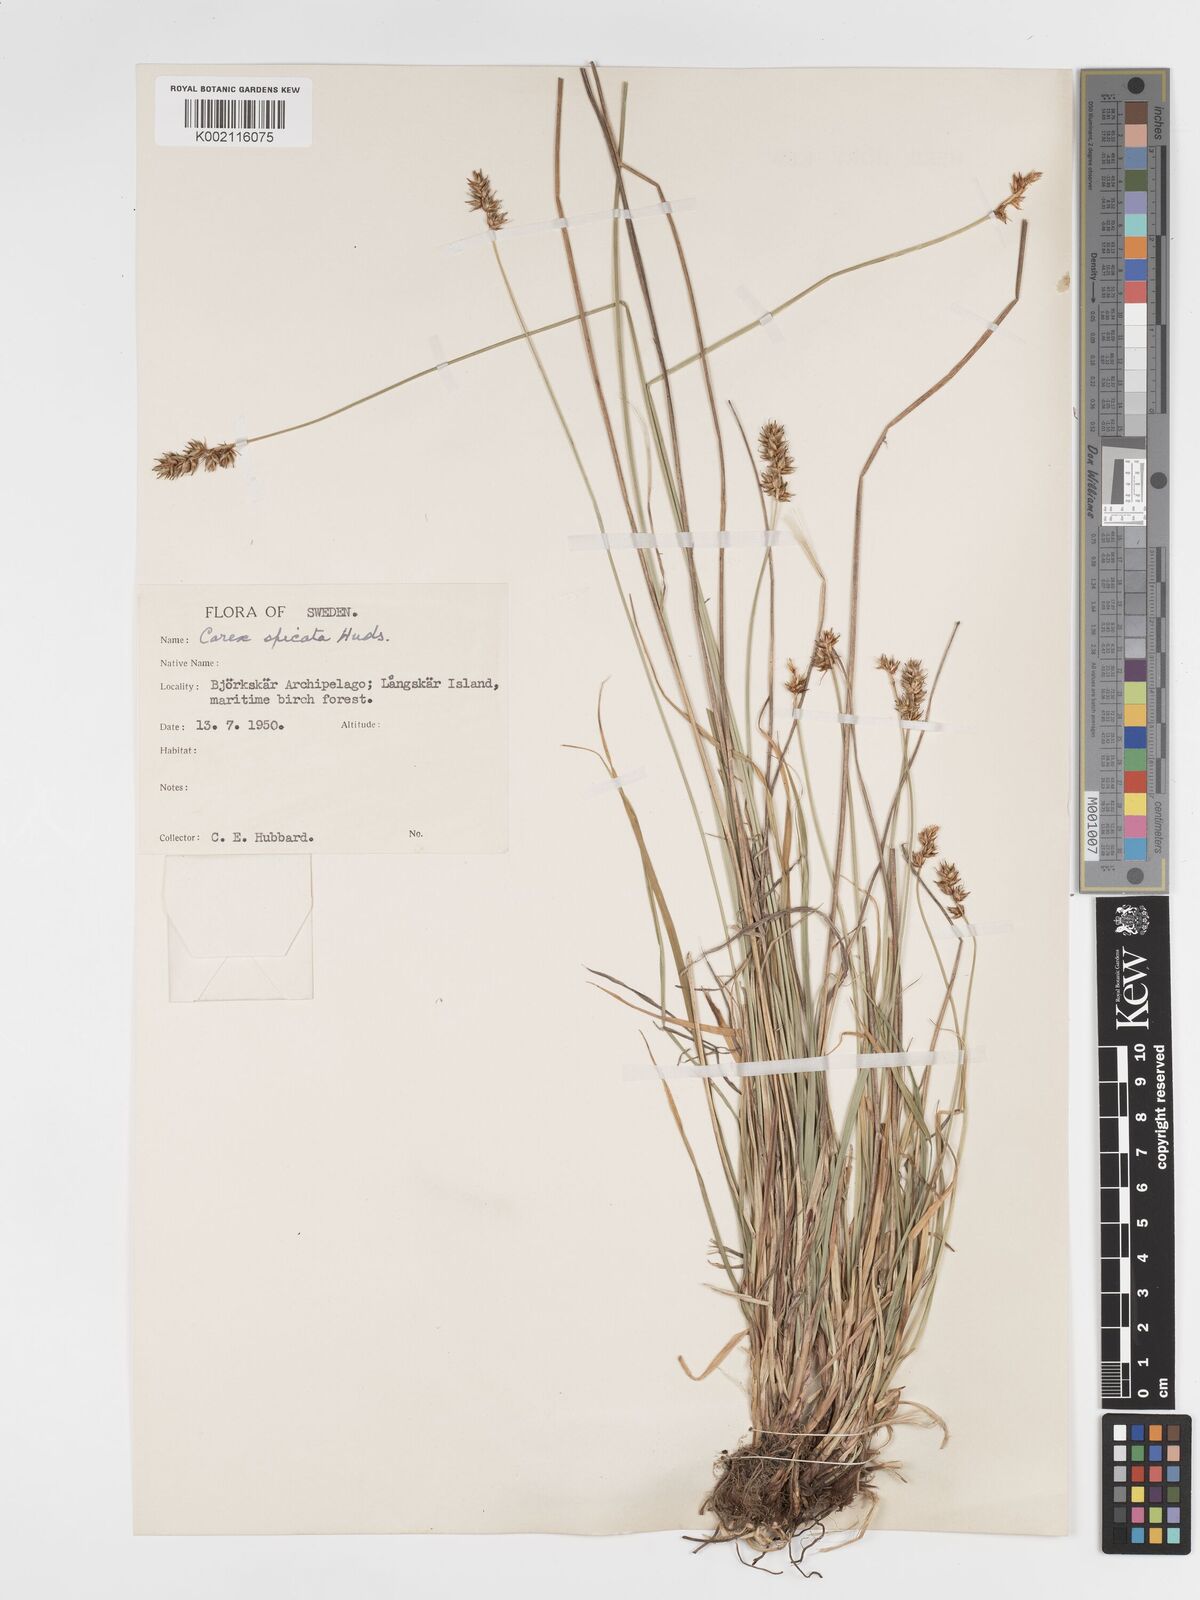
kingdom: Plantae
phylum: Tracheophyta
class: Liliopsida
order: Poales
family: Cyperaceae
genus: Carex
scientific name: Carex spicata
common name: Spiked sedge
